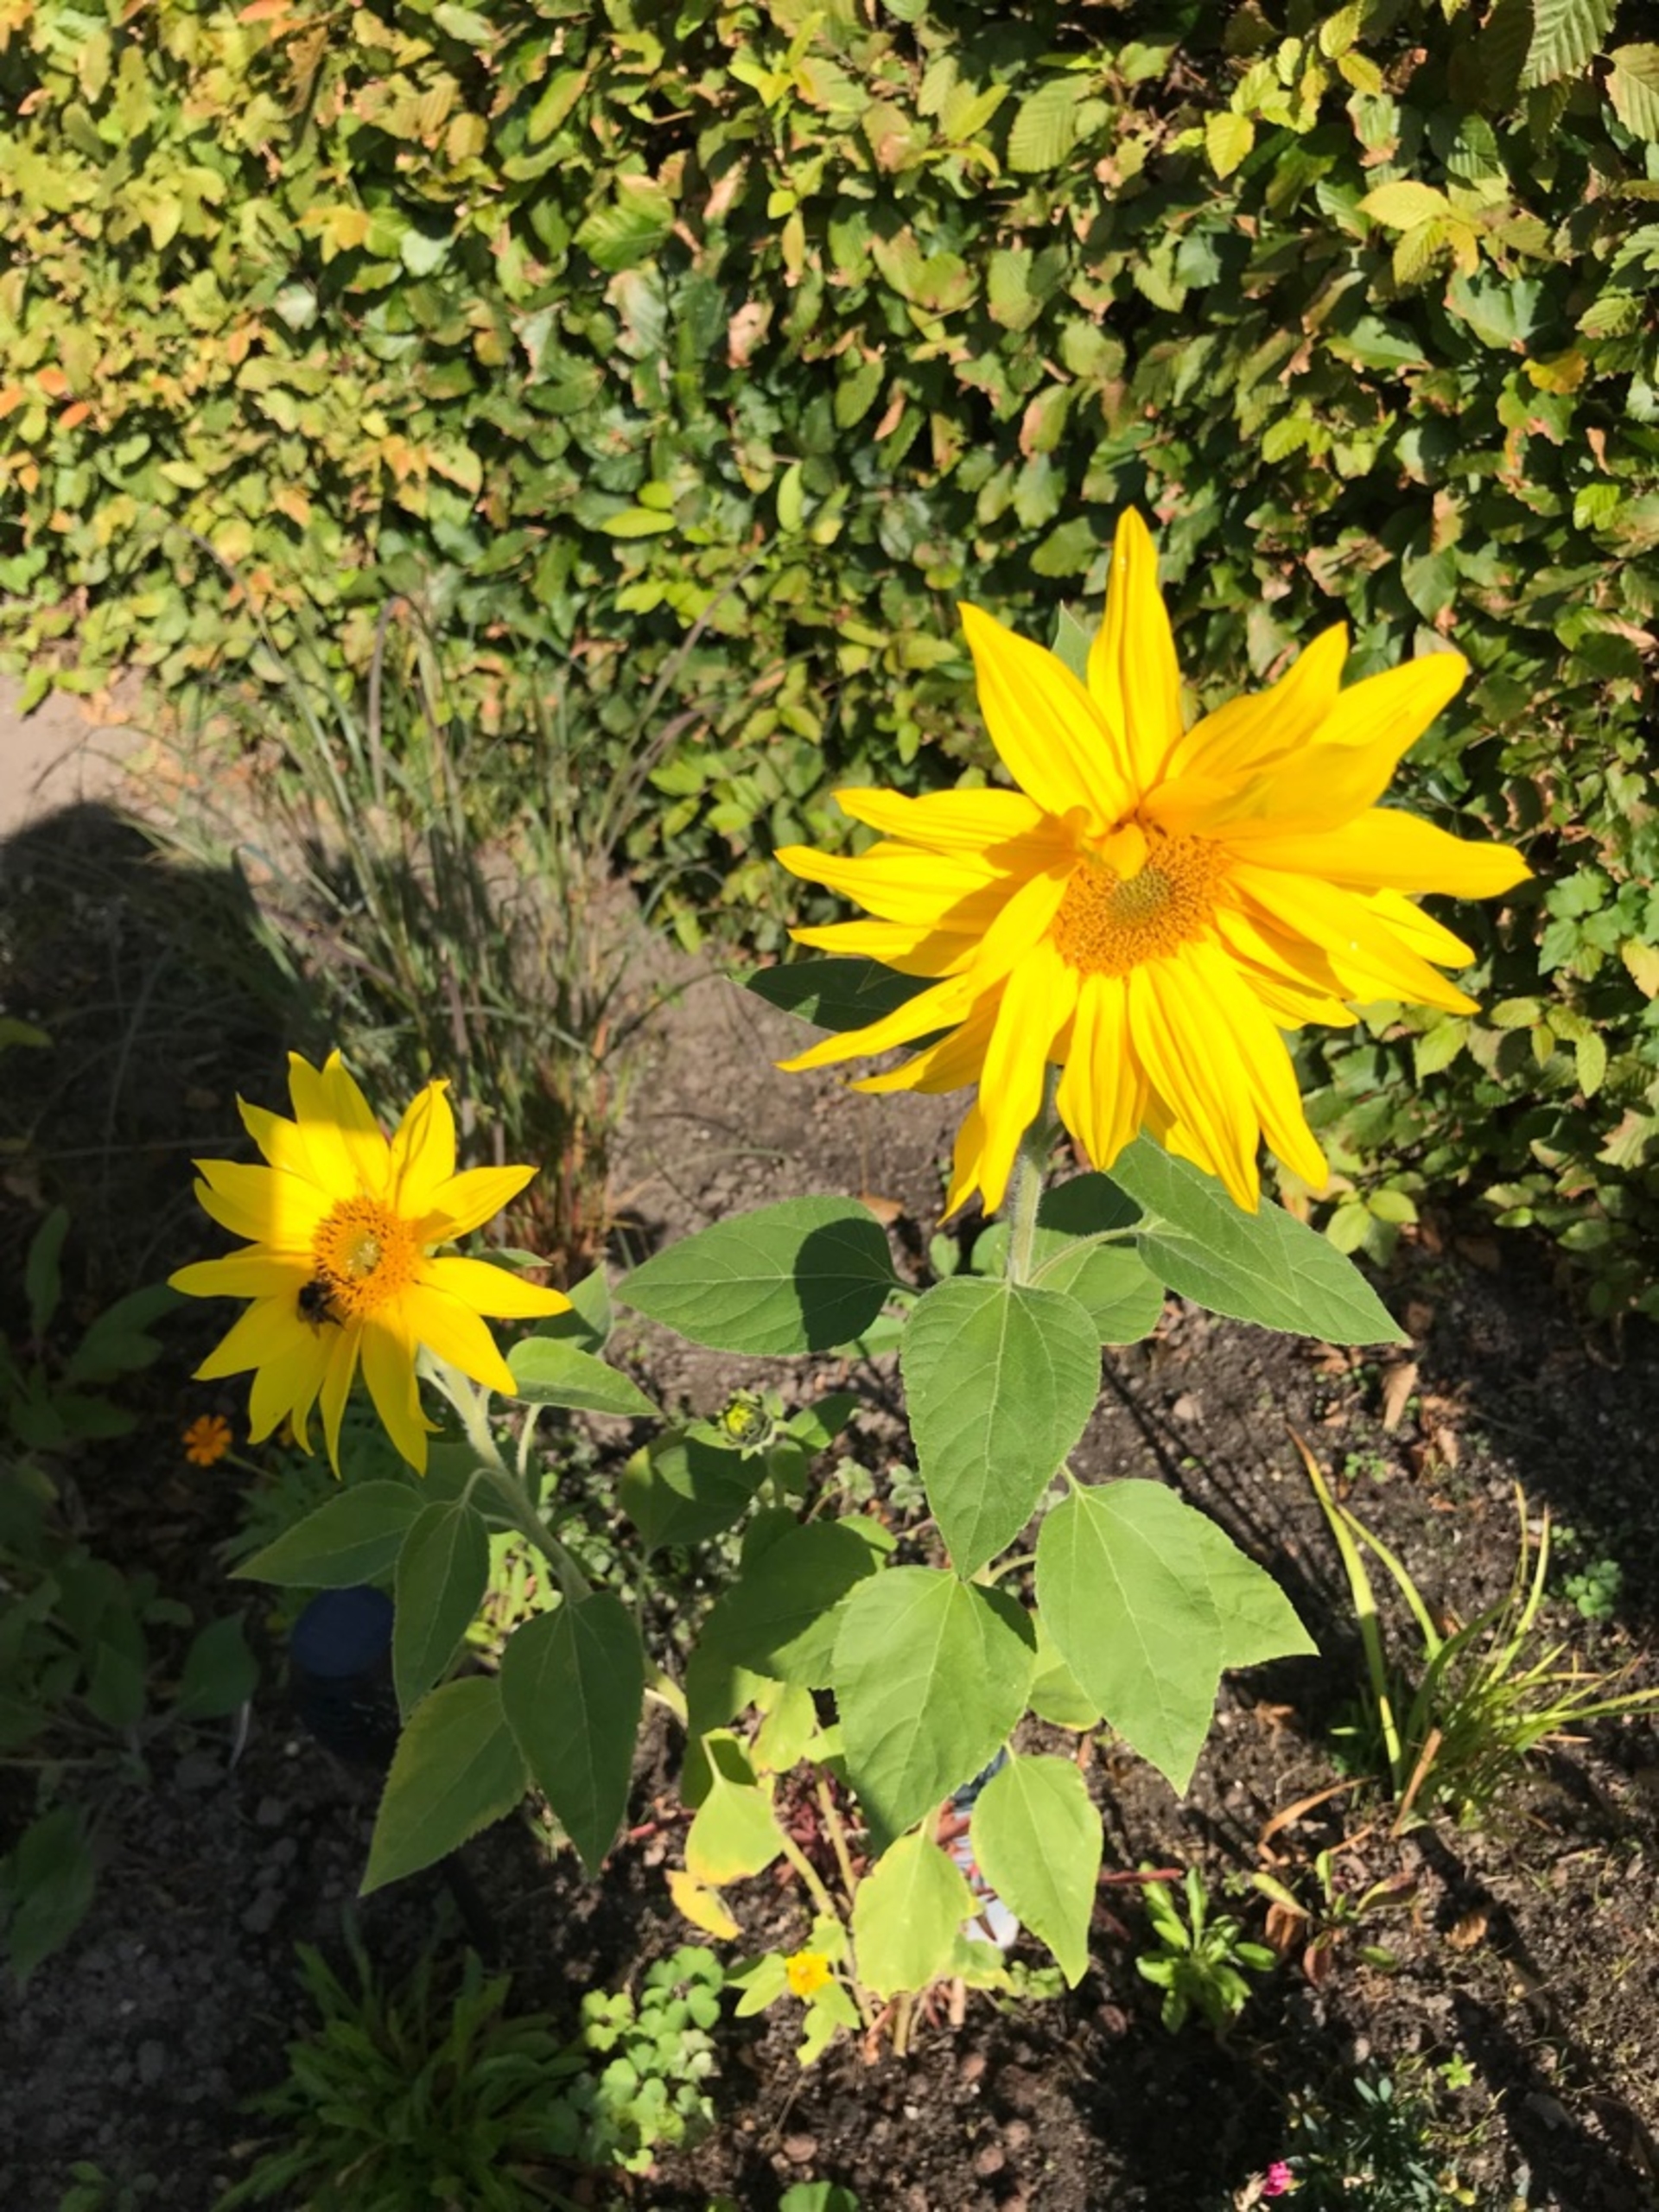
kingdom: Plantae
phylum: Tracheophyta
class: Magnoliopsida
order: Asterales
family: Asteraceae
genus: Helianthus
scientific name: Helianthus annuus
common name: Solsikke
